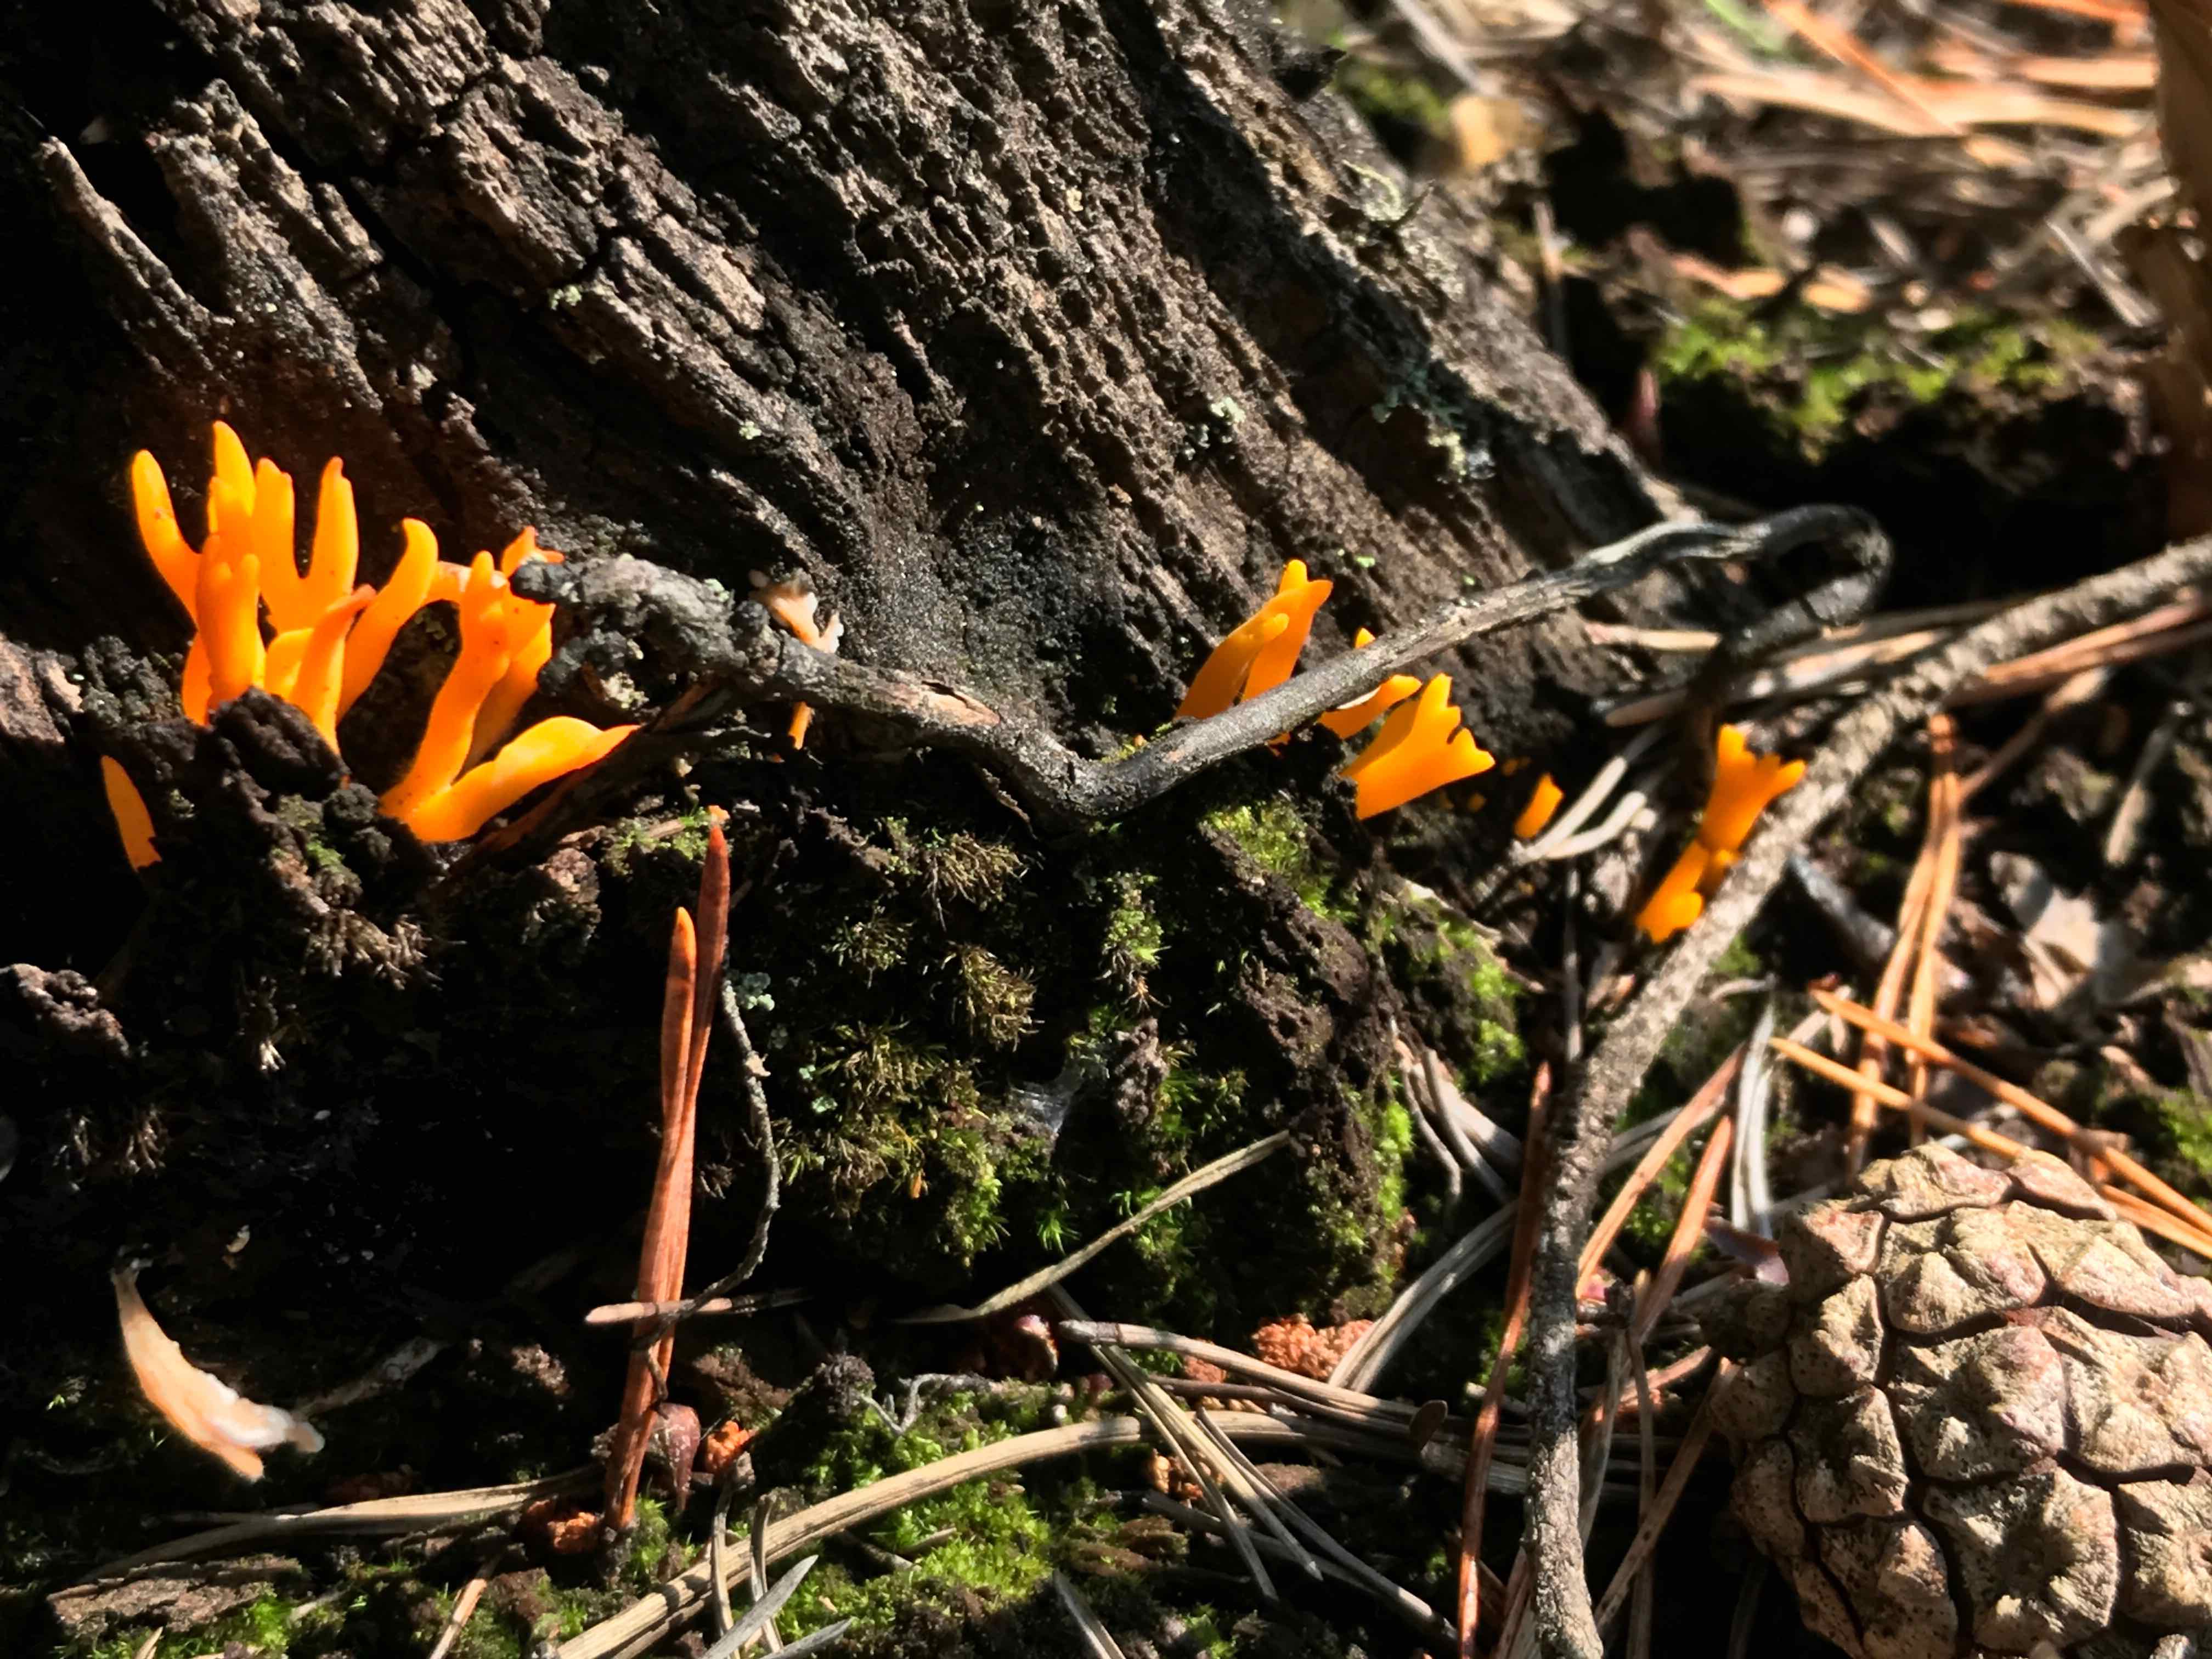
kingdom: Fungi
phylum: Basidiomycota
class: Dacrymycetes
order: Dacrymycetales
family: Dacrymycetaceae
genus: Calocera
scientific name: Calocera viscosa
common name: almindelig guldgaffel
